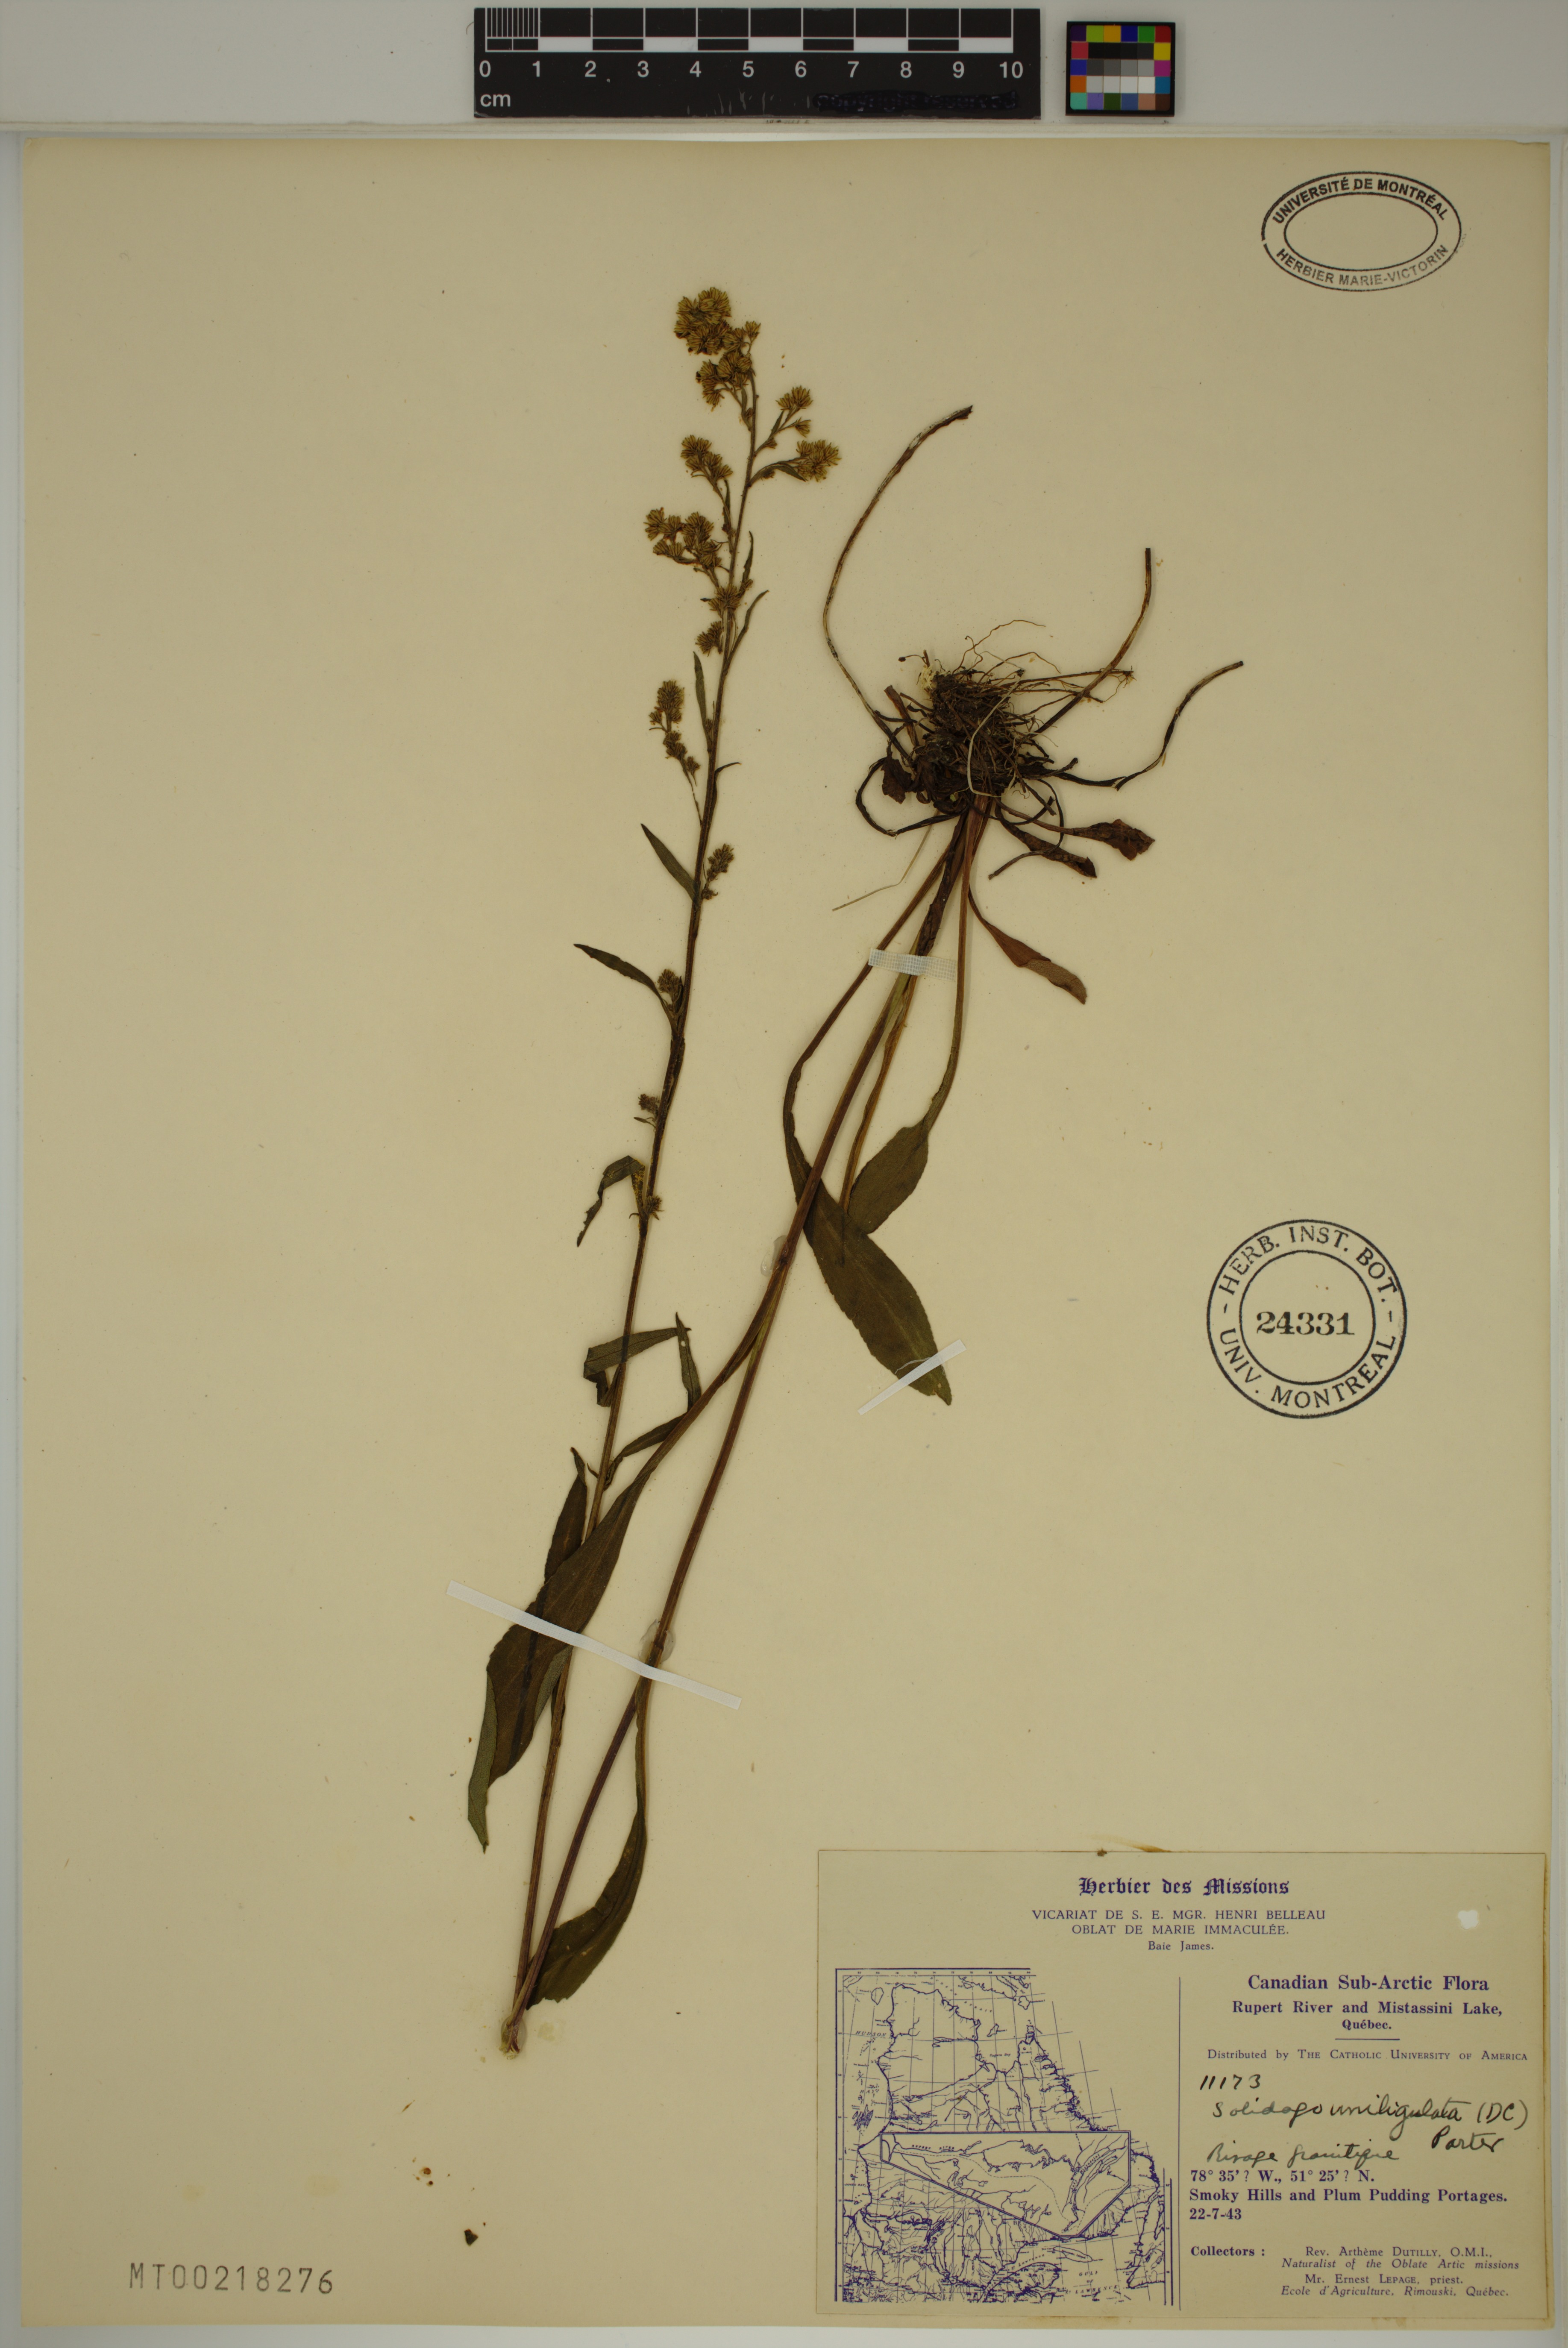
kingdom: Plantae
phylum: Tracheophyta
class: Magnoliopsida
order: Asterales
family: Asteraceae
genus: Solidago
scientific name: Solidago uliginosa
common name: Bog goldenrod
